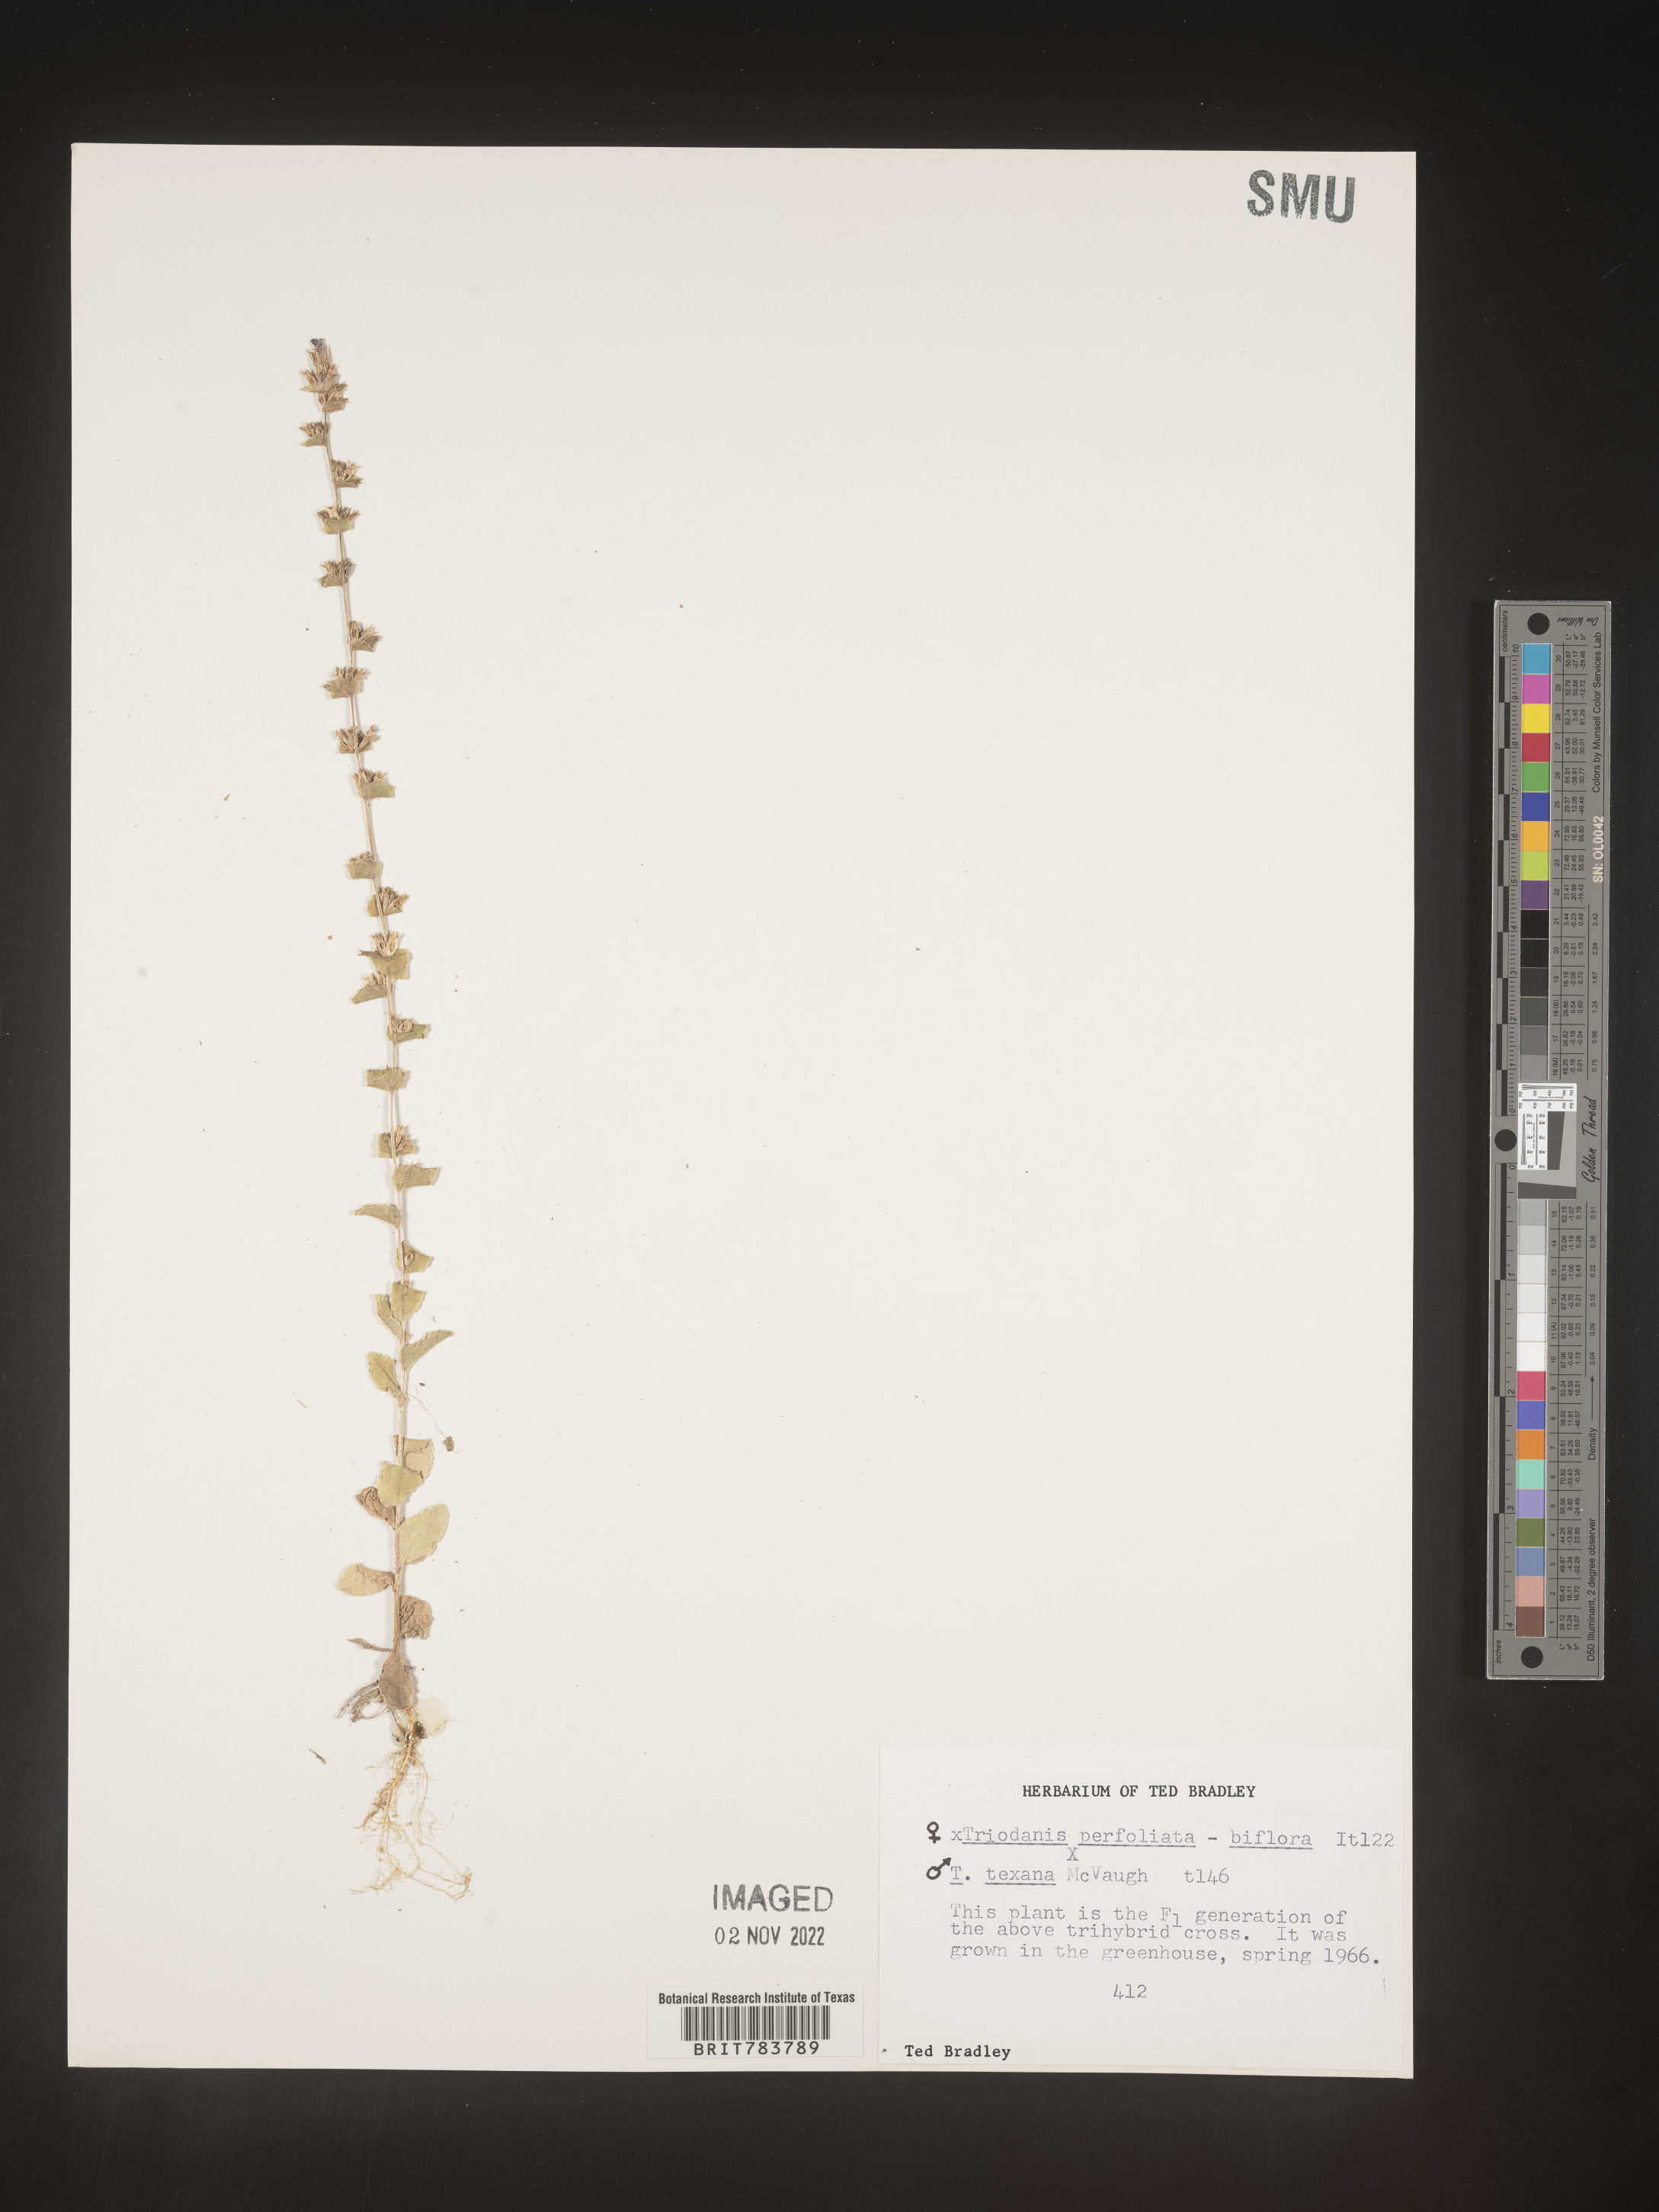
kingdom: Plantae
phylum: Tracheophyta
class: Magnoliopsida
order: Asterales
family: Campanulaceae
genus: Triodanis
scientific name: Triodanis
